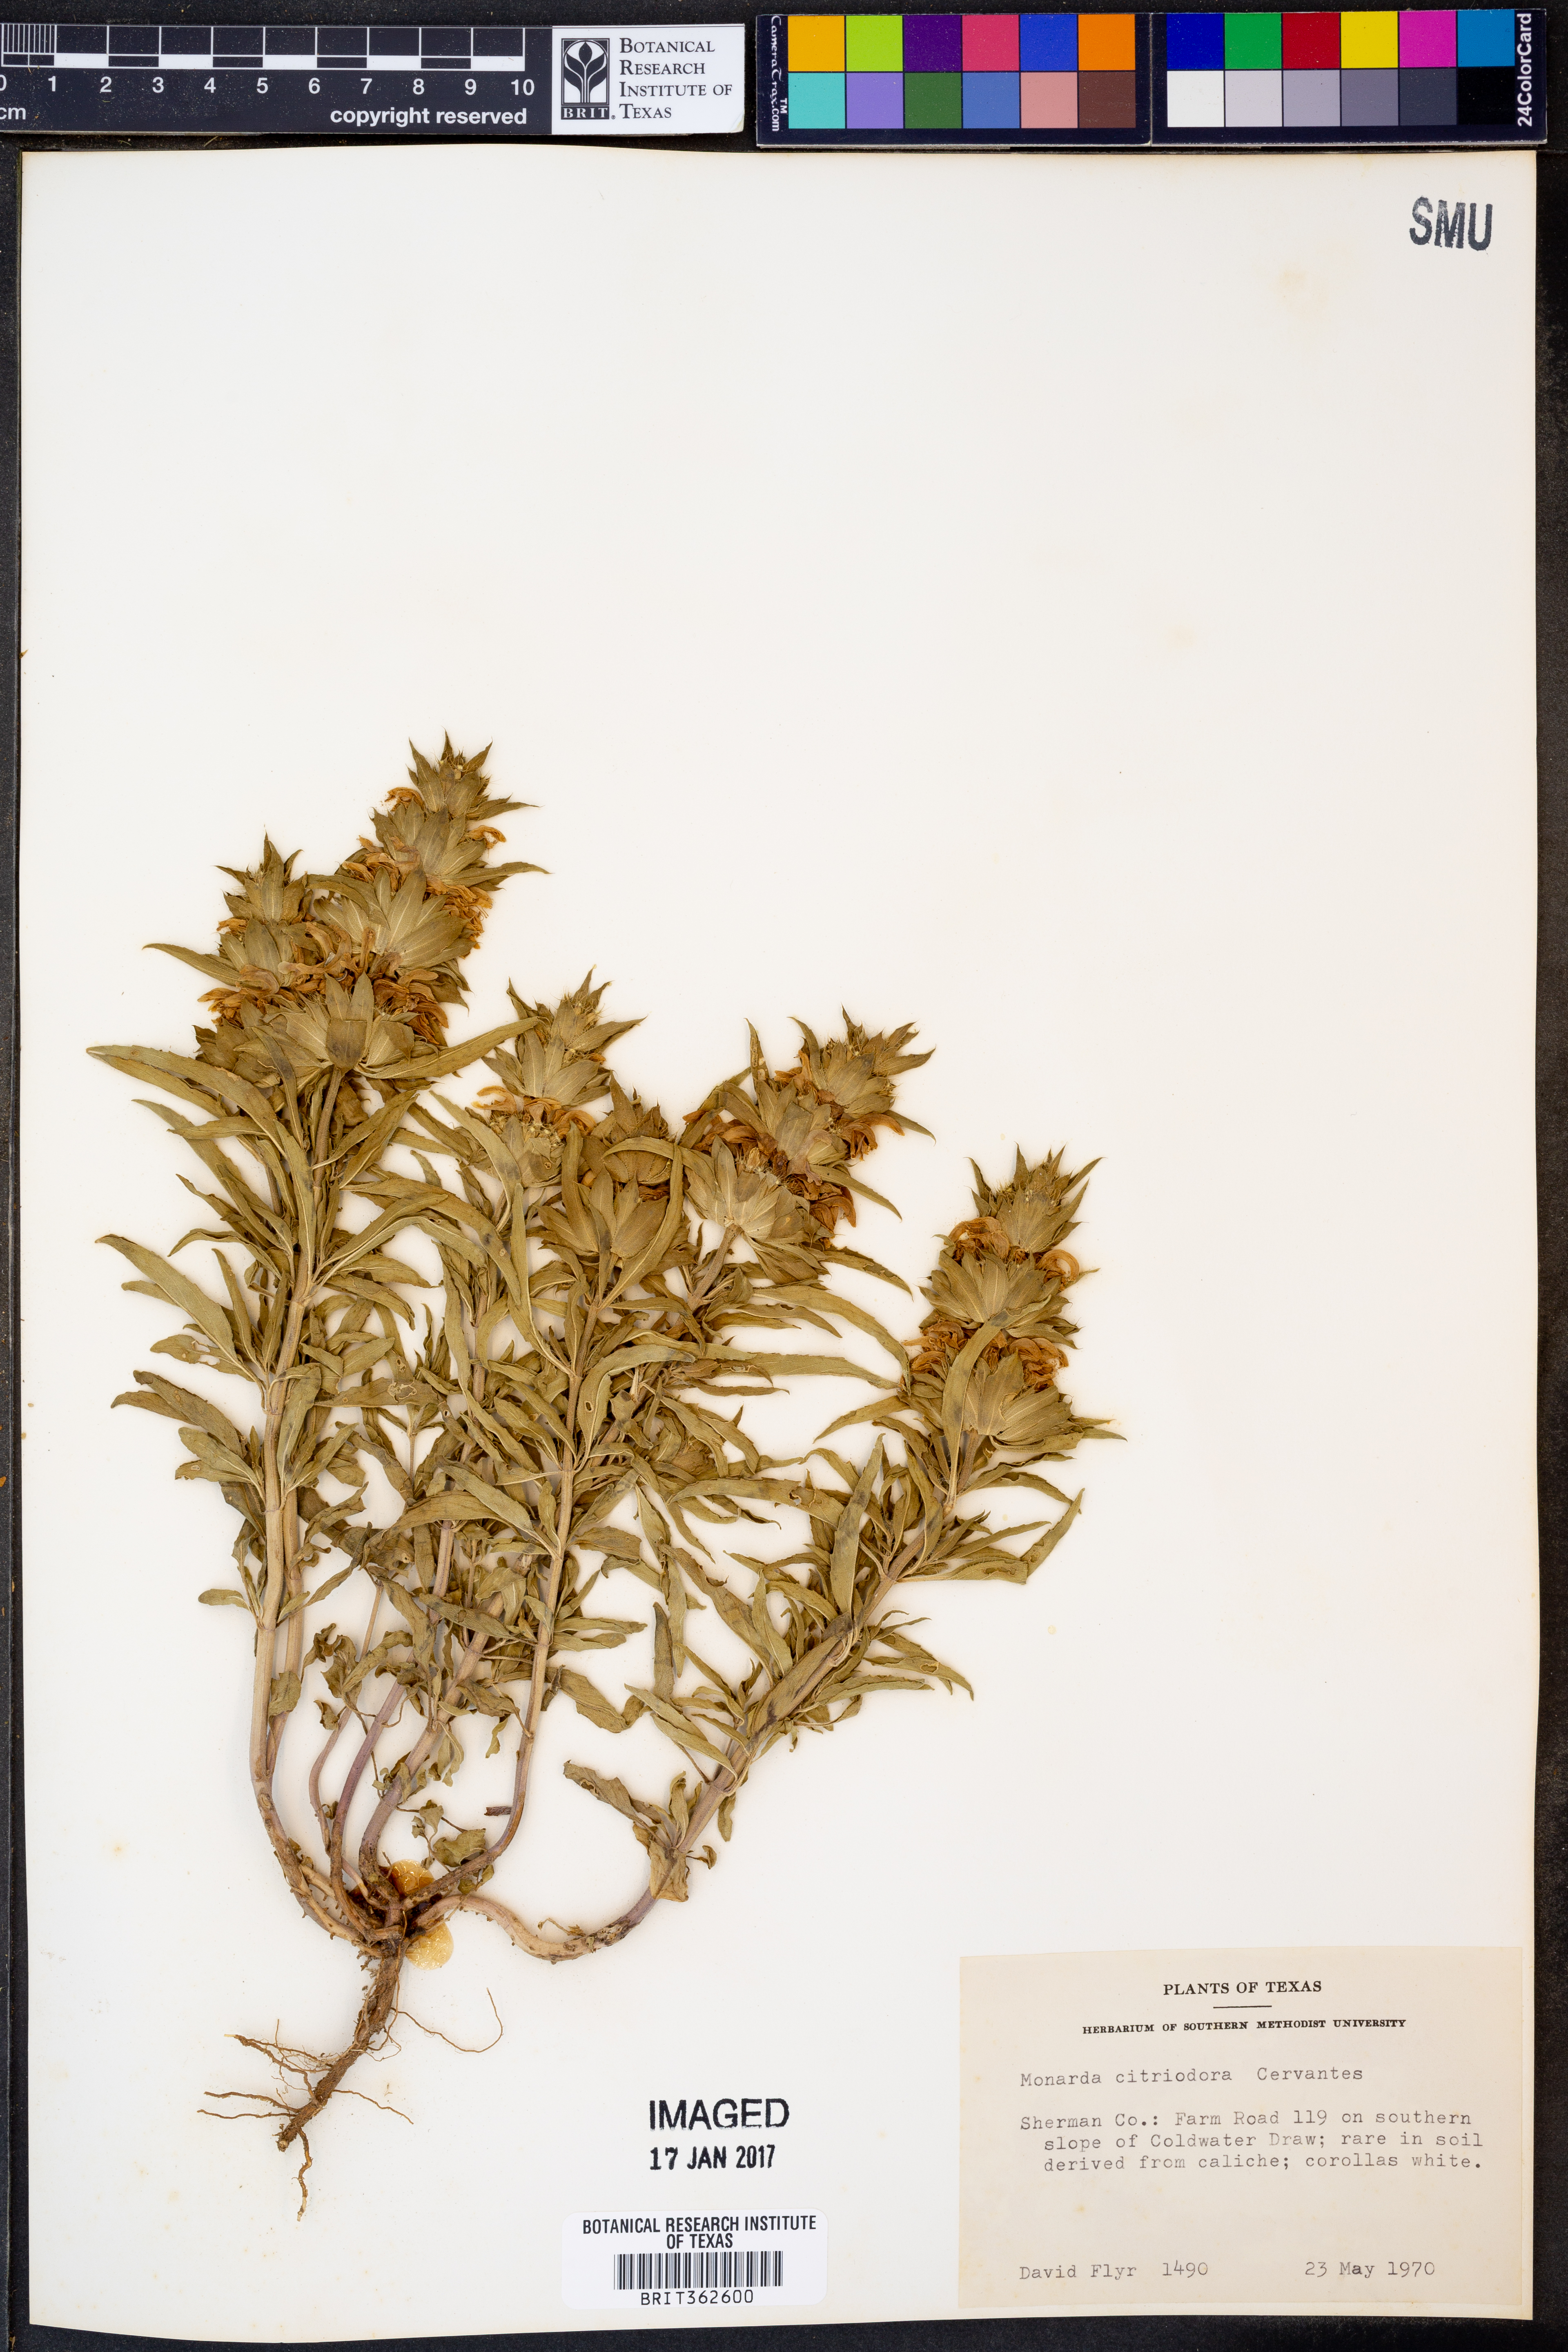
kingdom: Plantae
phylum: Tracheophyta
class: Magnoliopsida
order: Lamiales
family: Lamiaceae
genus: Monarda
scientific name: Monarda citriodora
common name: Lemon beebalm
